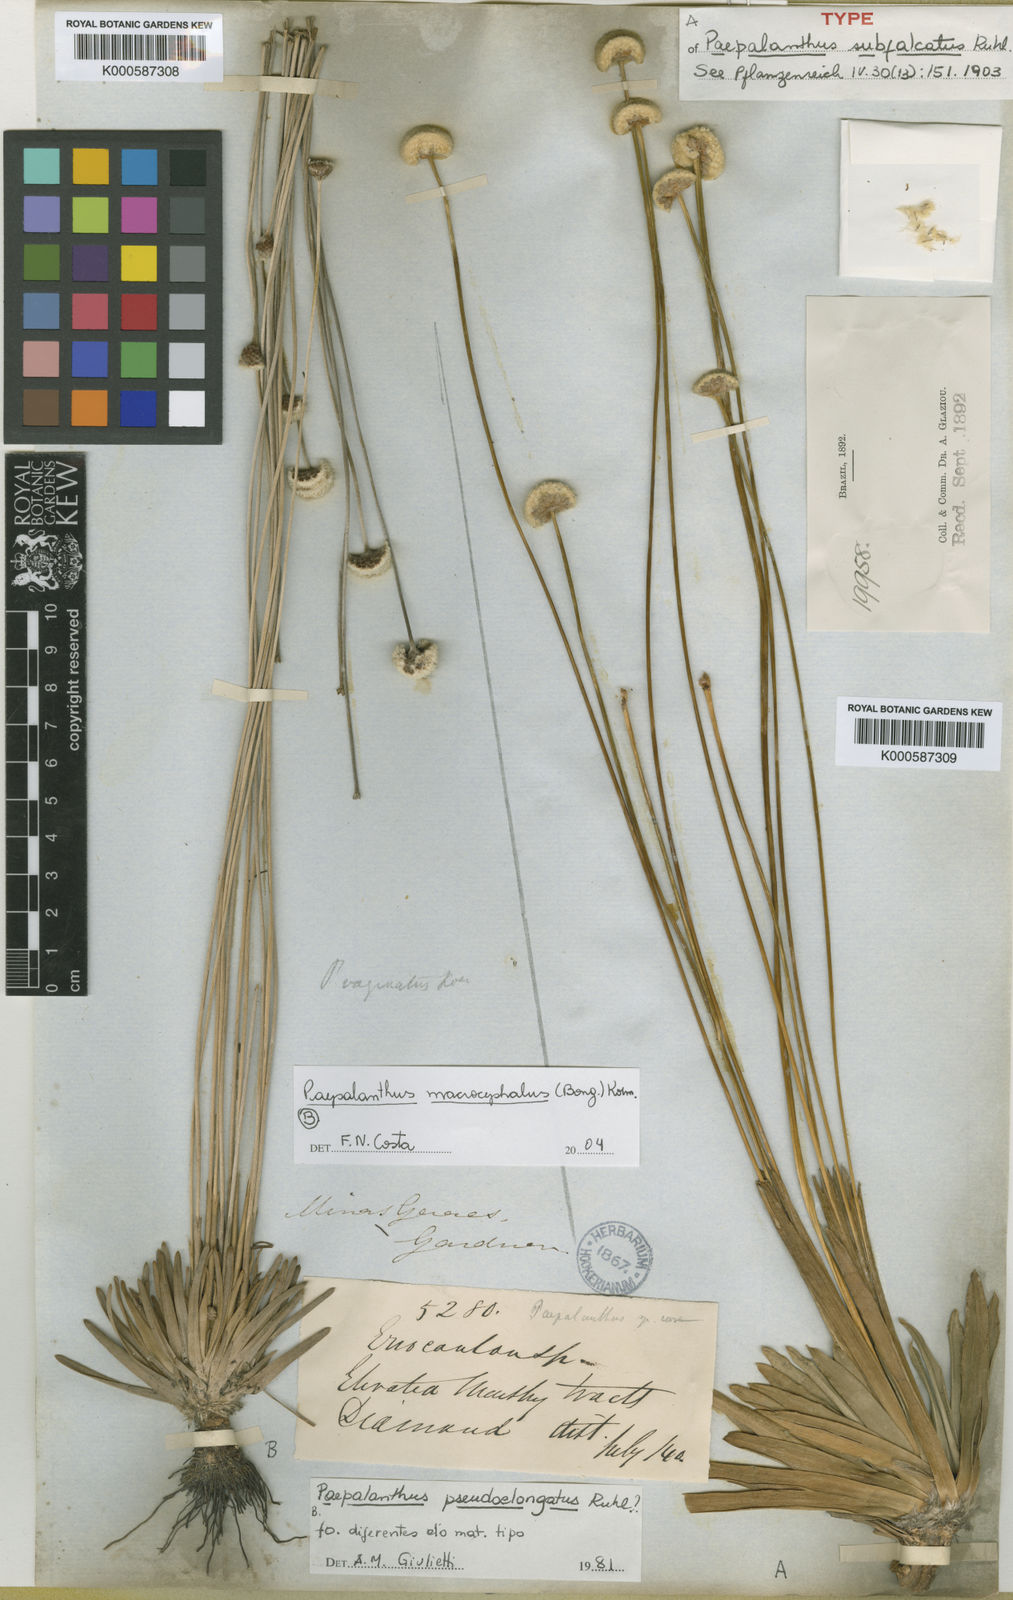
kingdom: Plantae
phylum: Tracheophyta
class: Liliopsida
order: Poales
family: Eriocaulaceae
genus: Paepalanthus
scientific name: Paepalanthus subfalcatus
